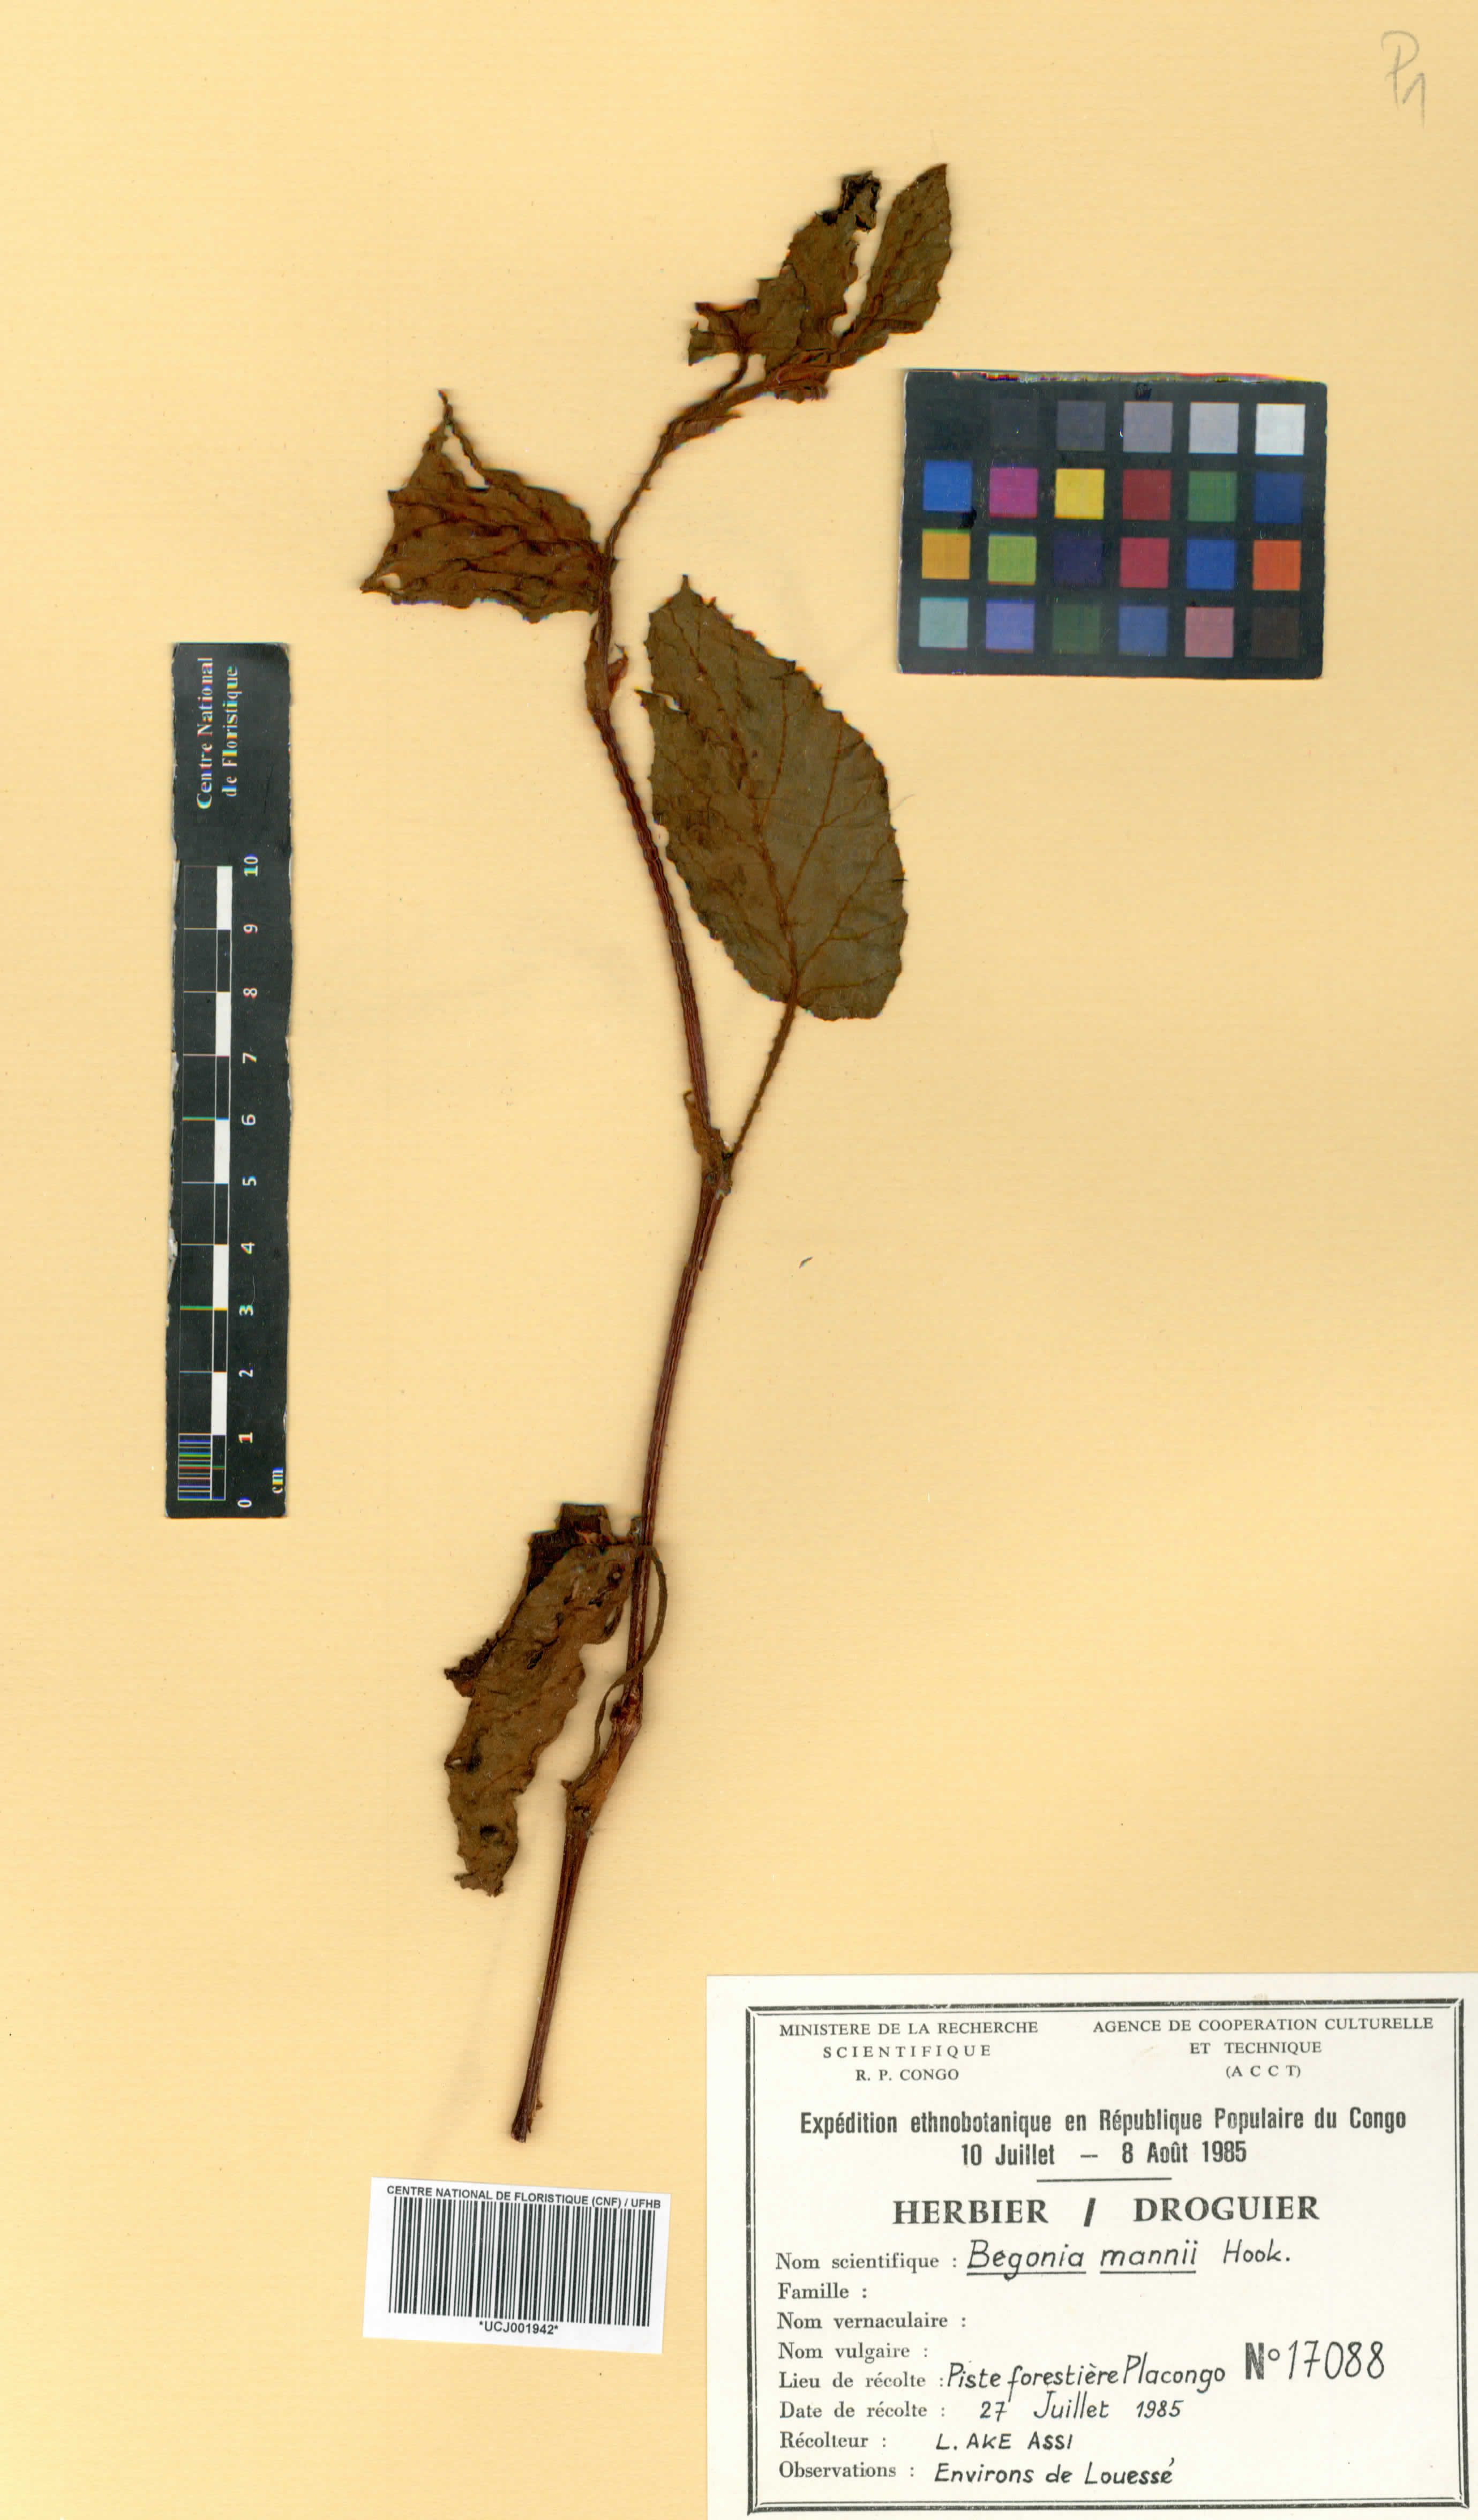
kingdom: Plantae
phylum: Tracheophyta
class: Magnoliopsida
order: Cucurbitales
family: Begoniaceae
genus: Begonia
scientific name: Begonia mannii
